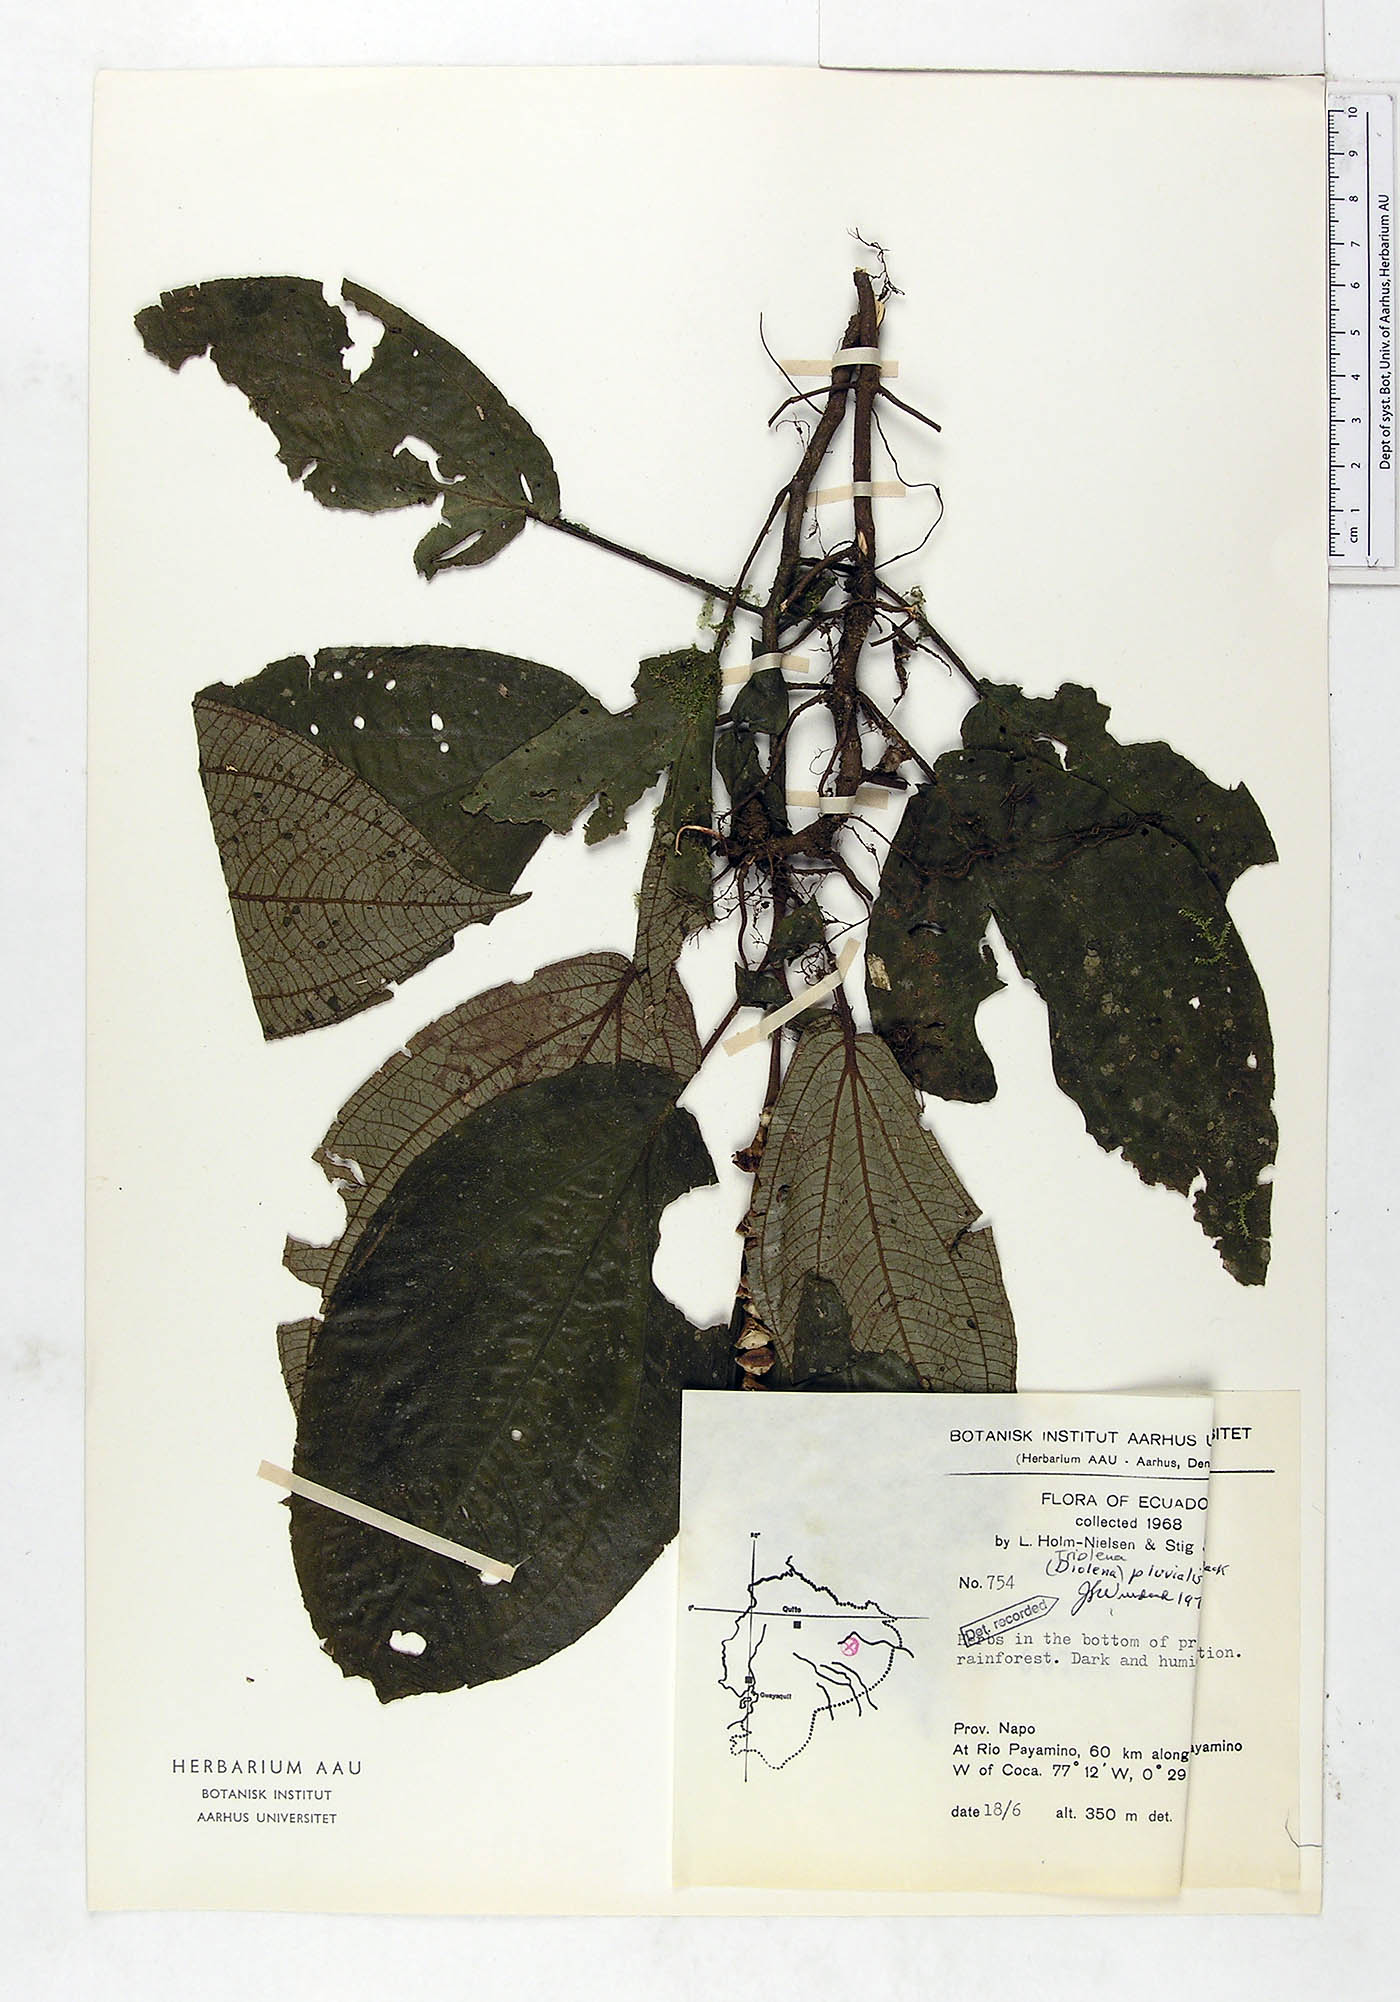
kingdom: Plantae
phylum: Tracheophyta
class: Magnoliopsida
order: Myrtales
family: Melastomataceae
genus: Triolena
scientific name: Triolena pluvialis
